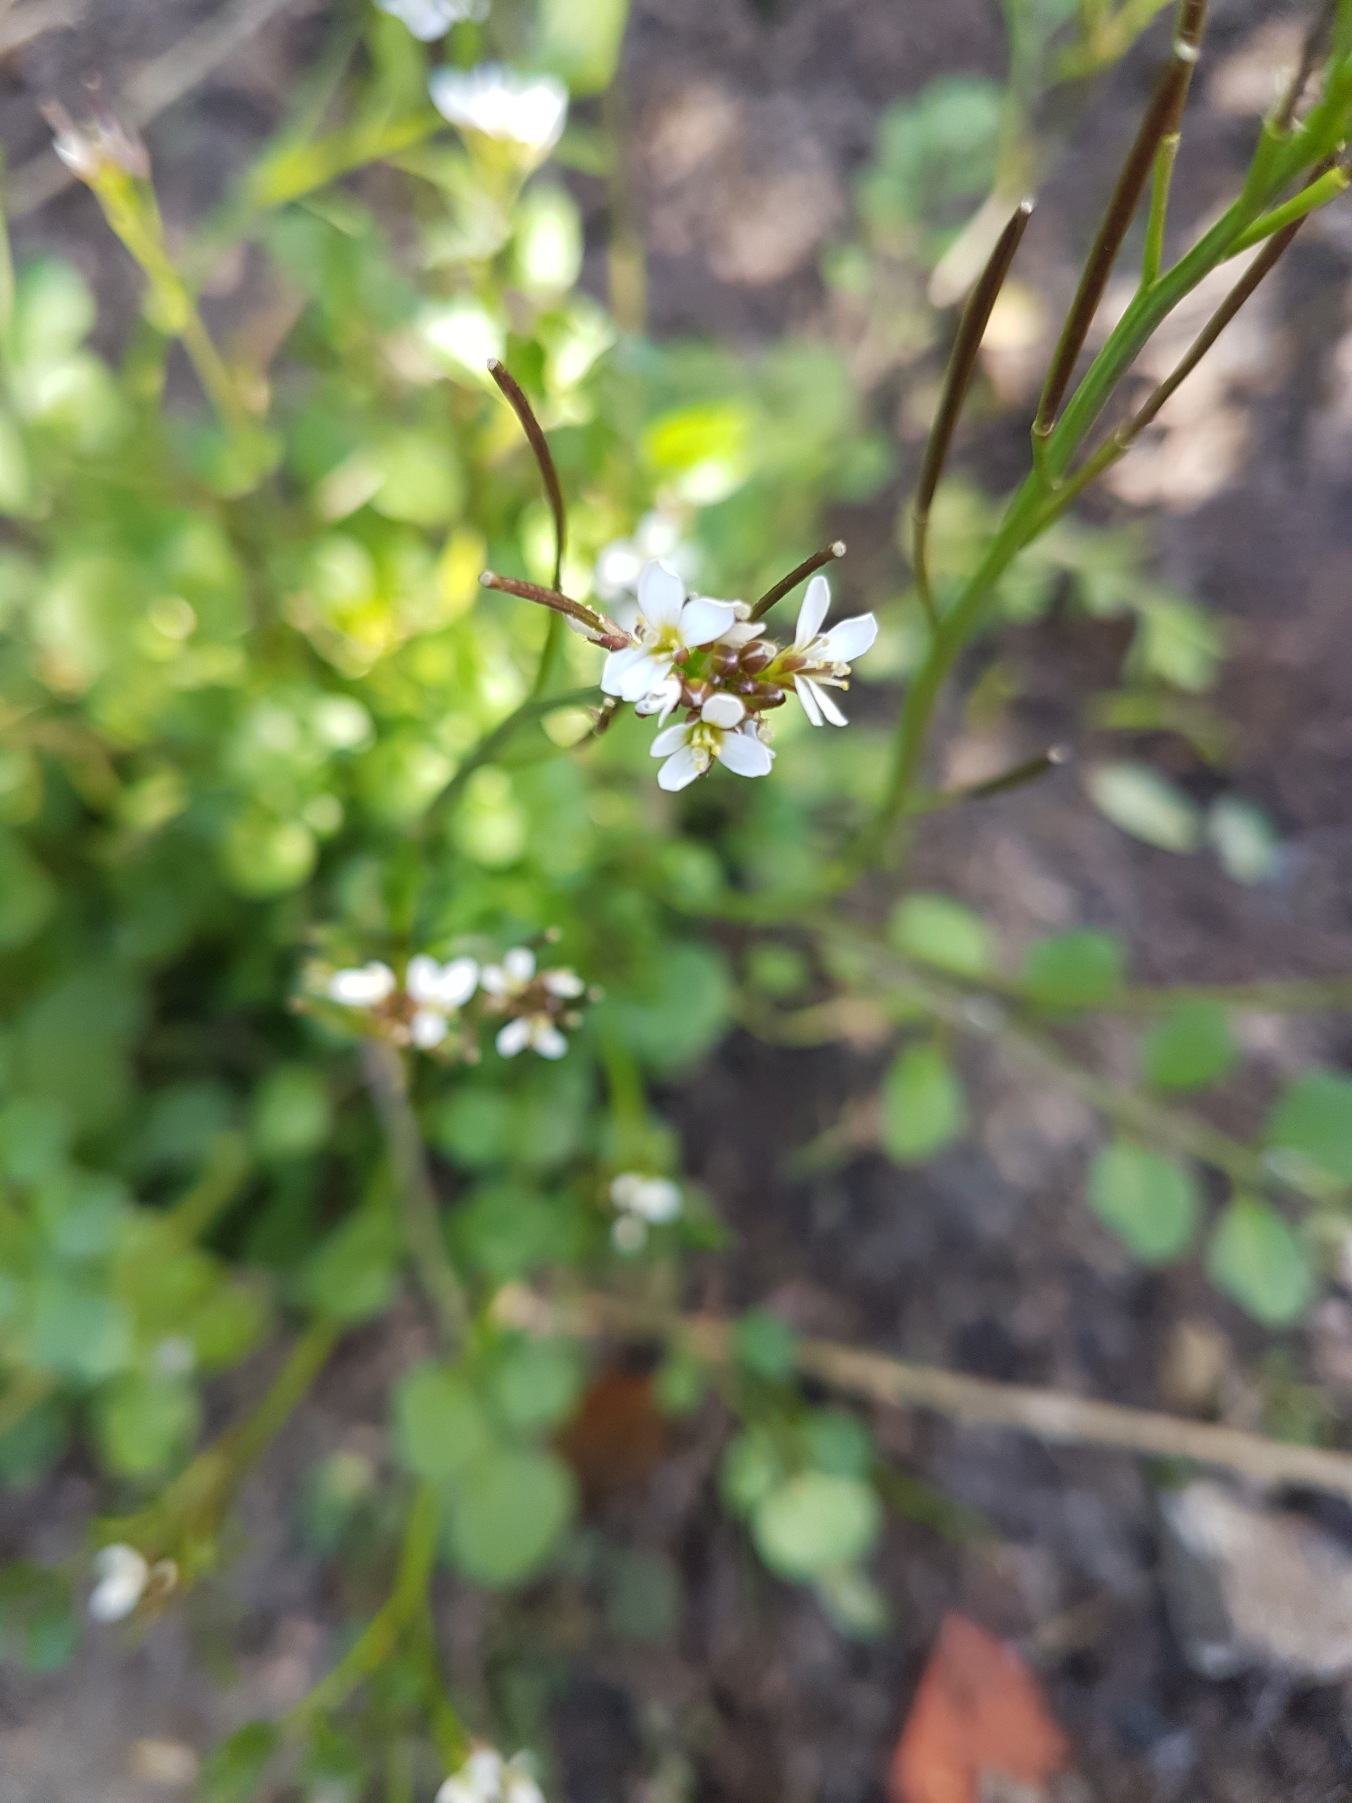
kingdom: Plantae
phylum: Tracheophyta
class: Magnoliopsida
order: Brassicales
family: Brassicaceae
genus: Cardamine
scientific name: Cardamine hirsuta
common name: Roset-springklap
